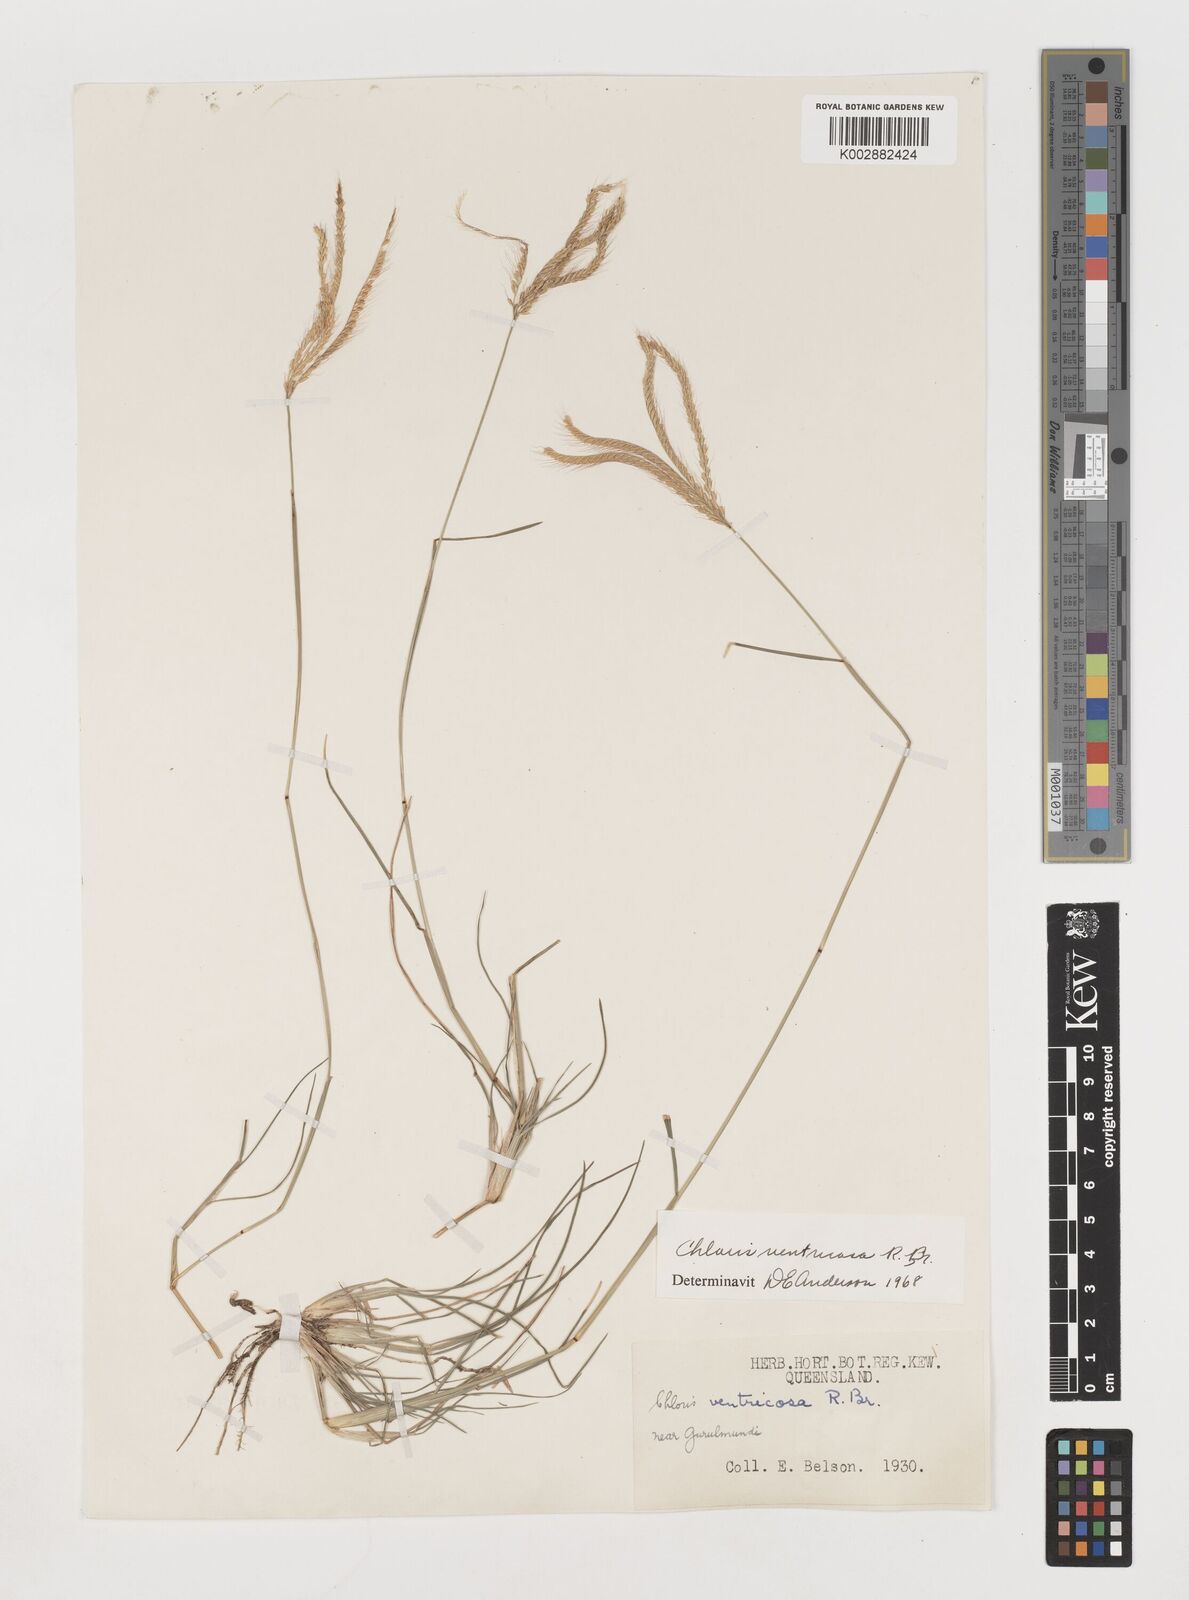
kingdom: Plantae
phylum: Tracheophyta
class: Liliopsida
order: Poales
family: Poaceae
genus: Chloris
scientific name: Chloris ventricosa
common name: Australian windmill grass
